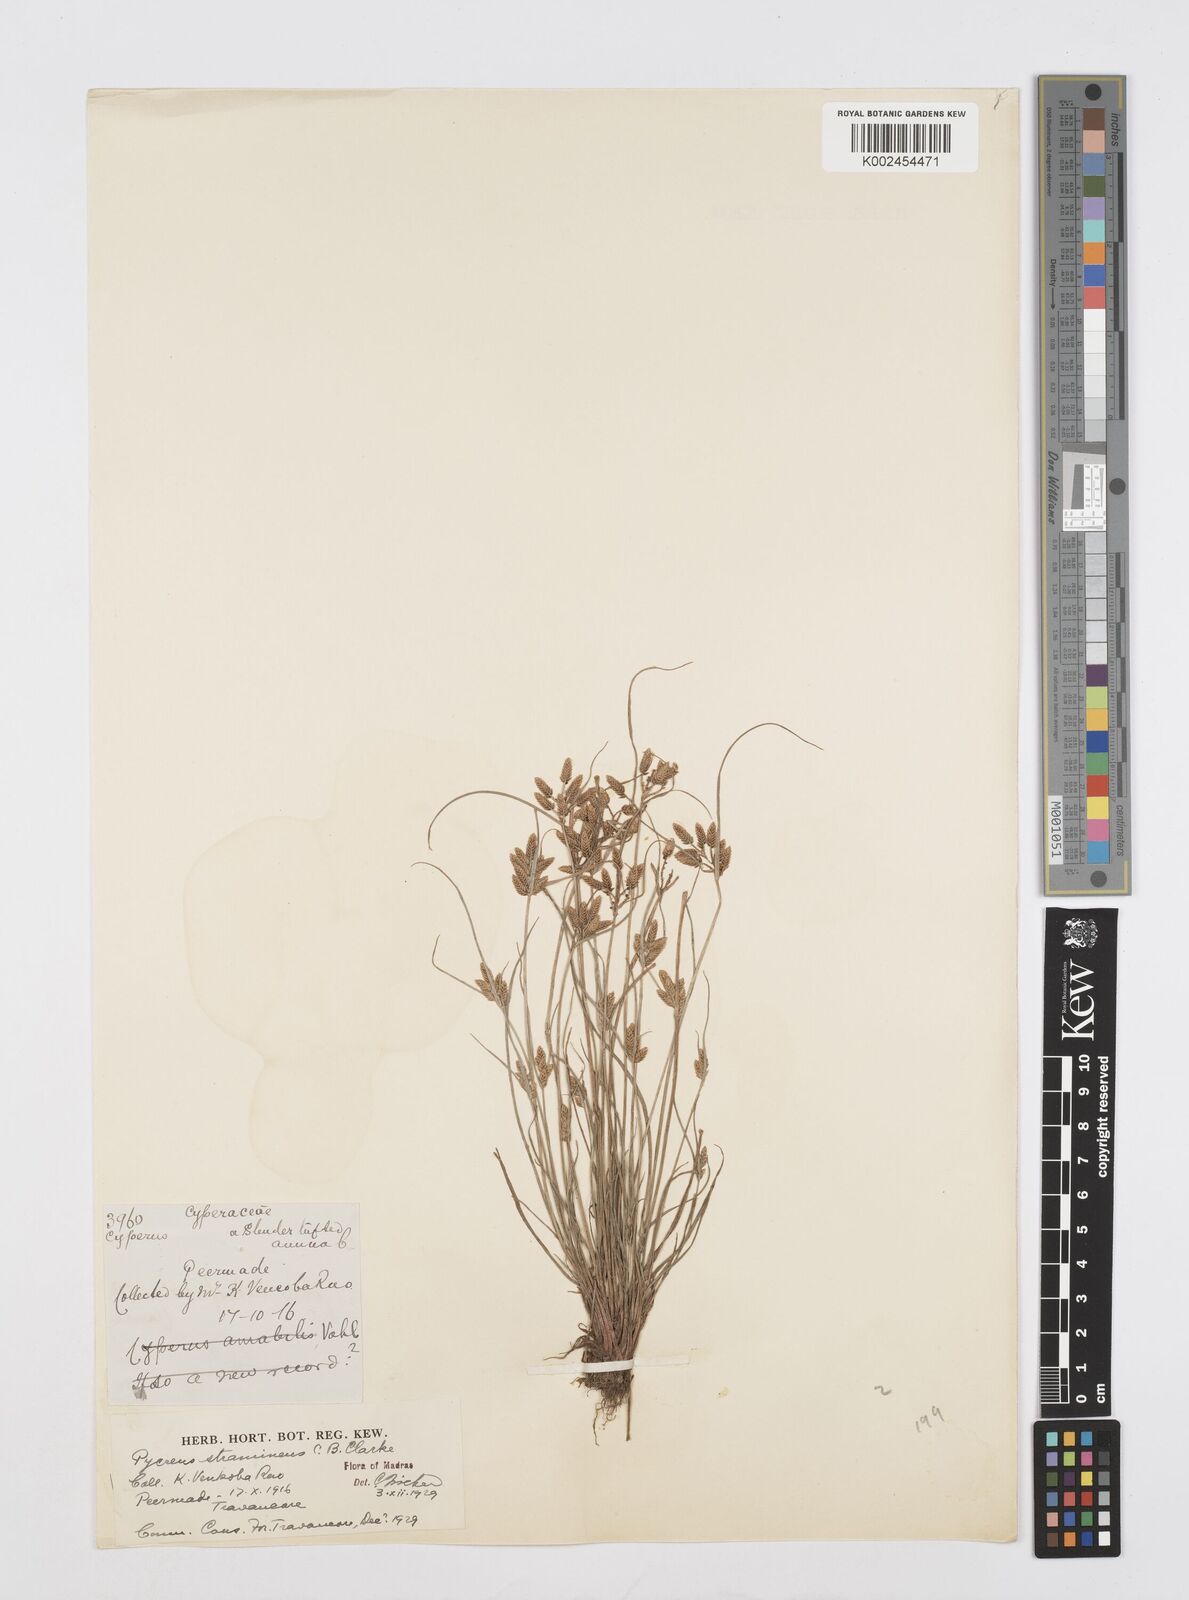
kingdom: Plantae
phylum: Tracheophyta
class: Liliopsida
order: Poales
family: Cyperaceae
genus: Cyperus
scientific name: Cyperus
